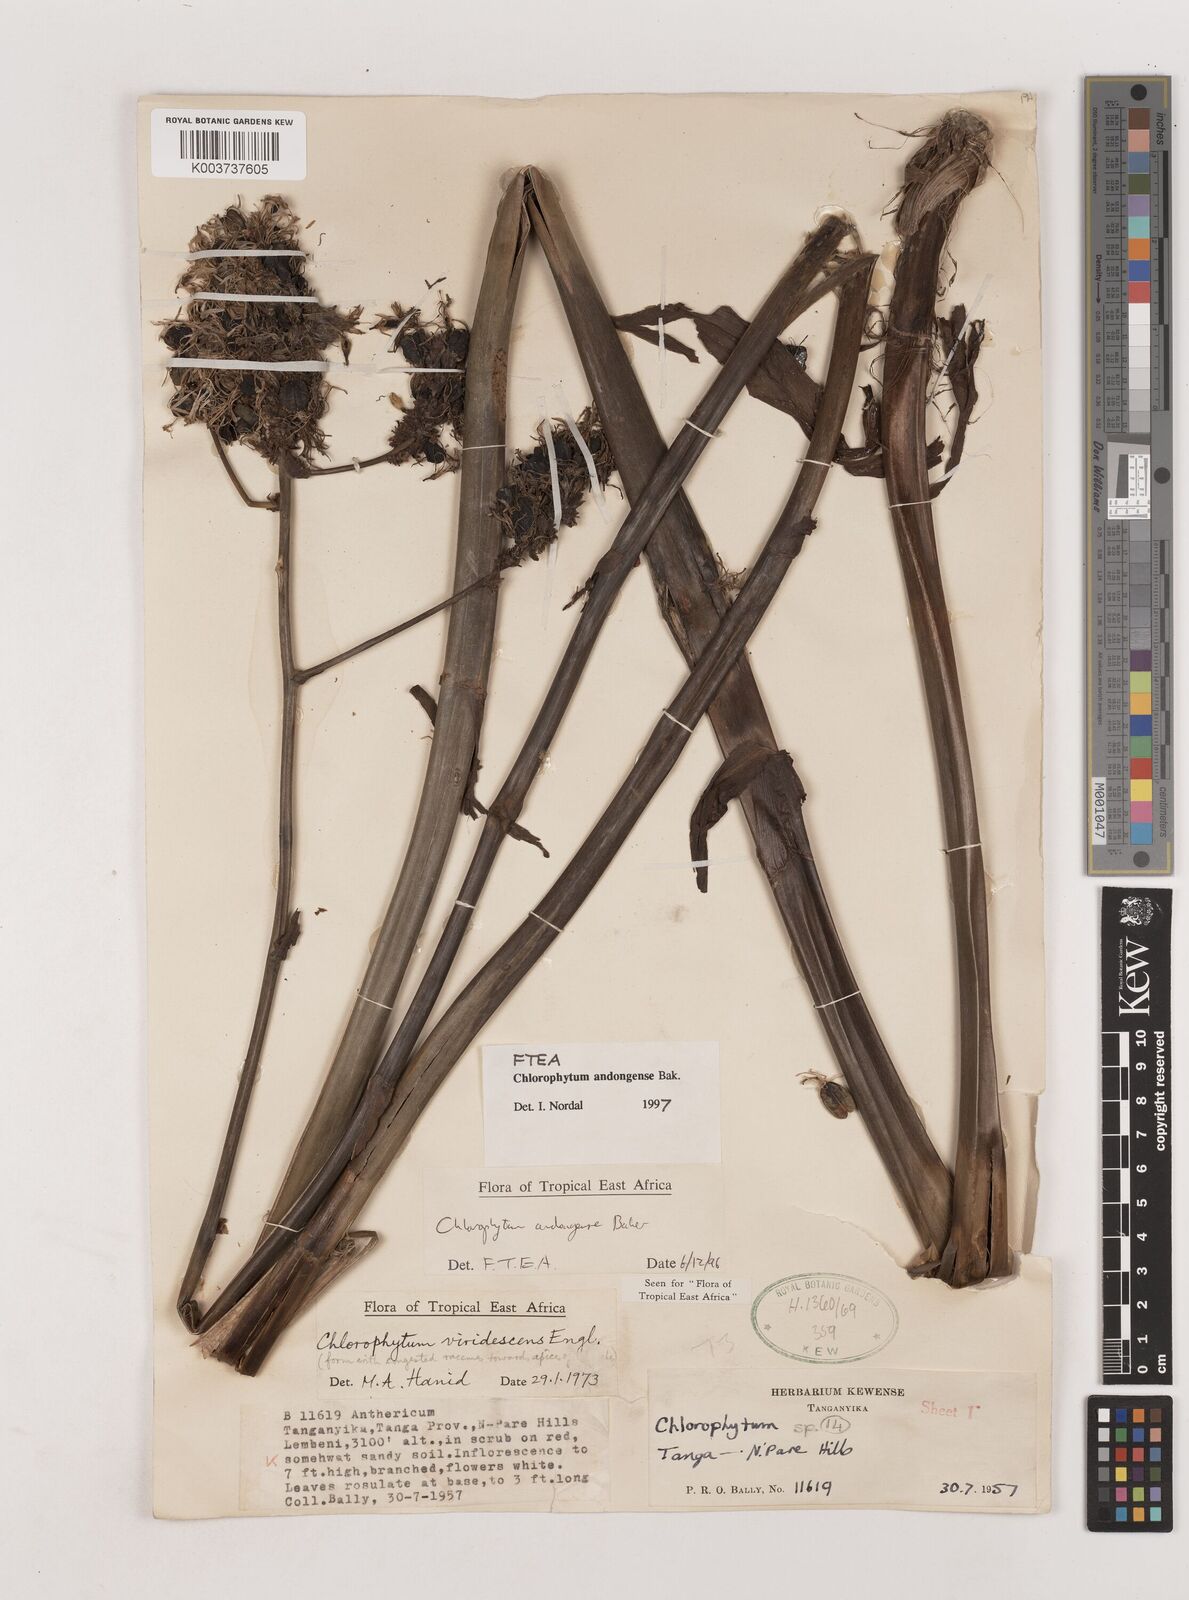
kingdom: Plantae
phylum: Tracheophyta
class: Liliopsida
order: Asparagales
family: Asparagaceae
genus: Chlorophytum
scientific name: Chlorophytum andongense
